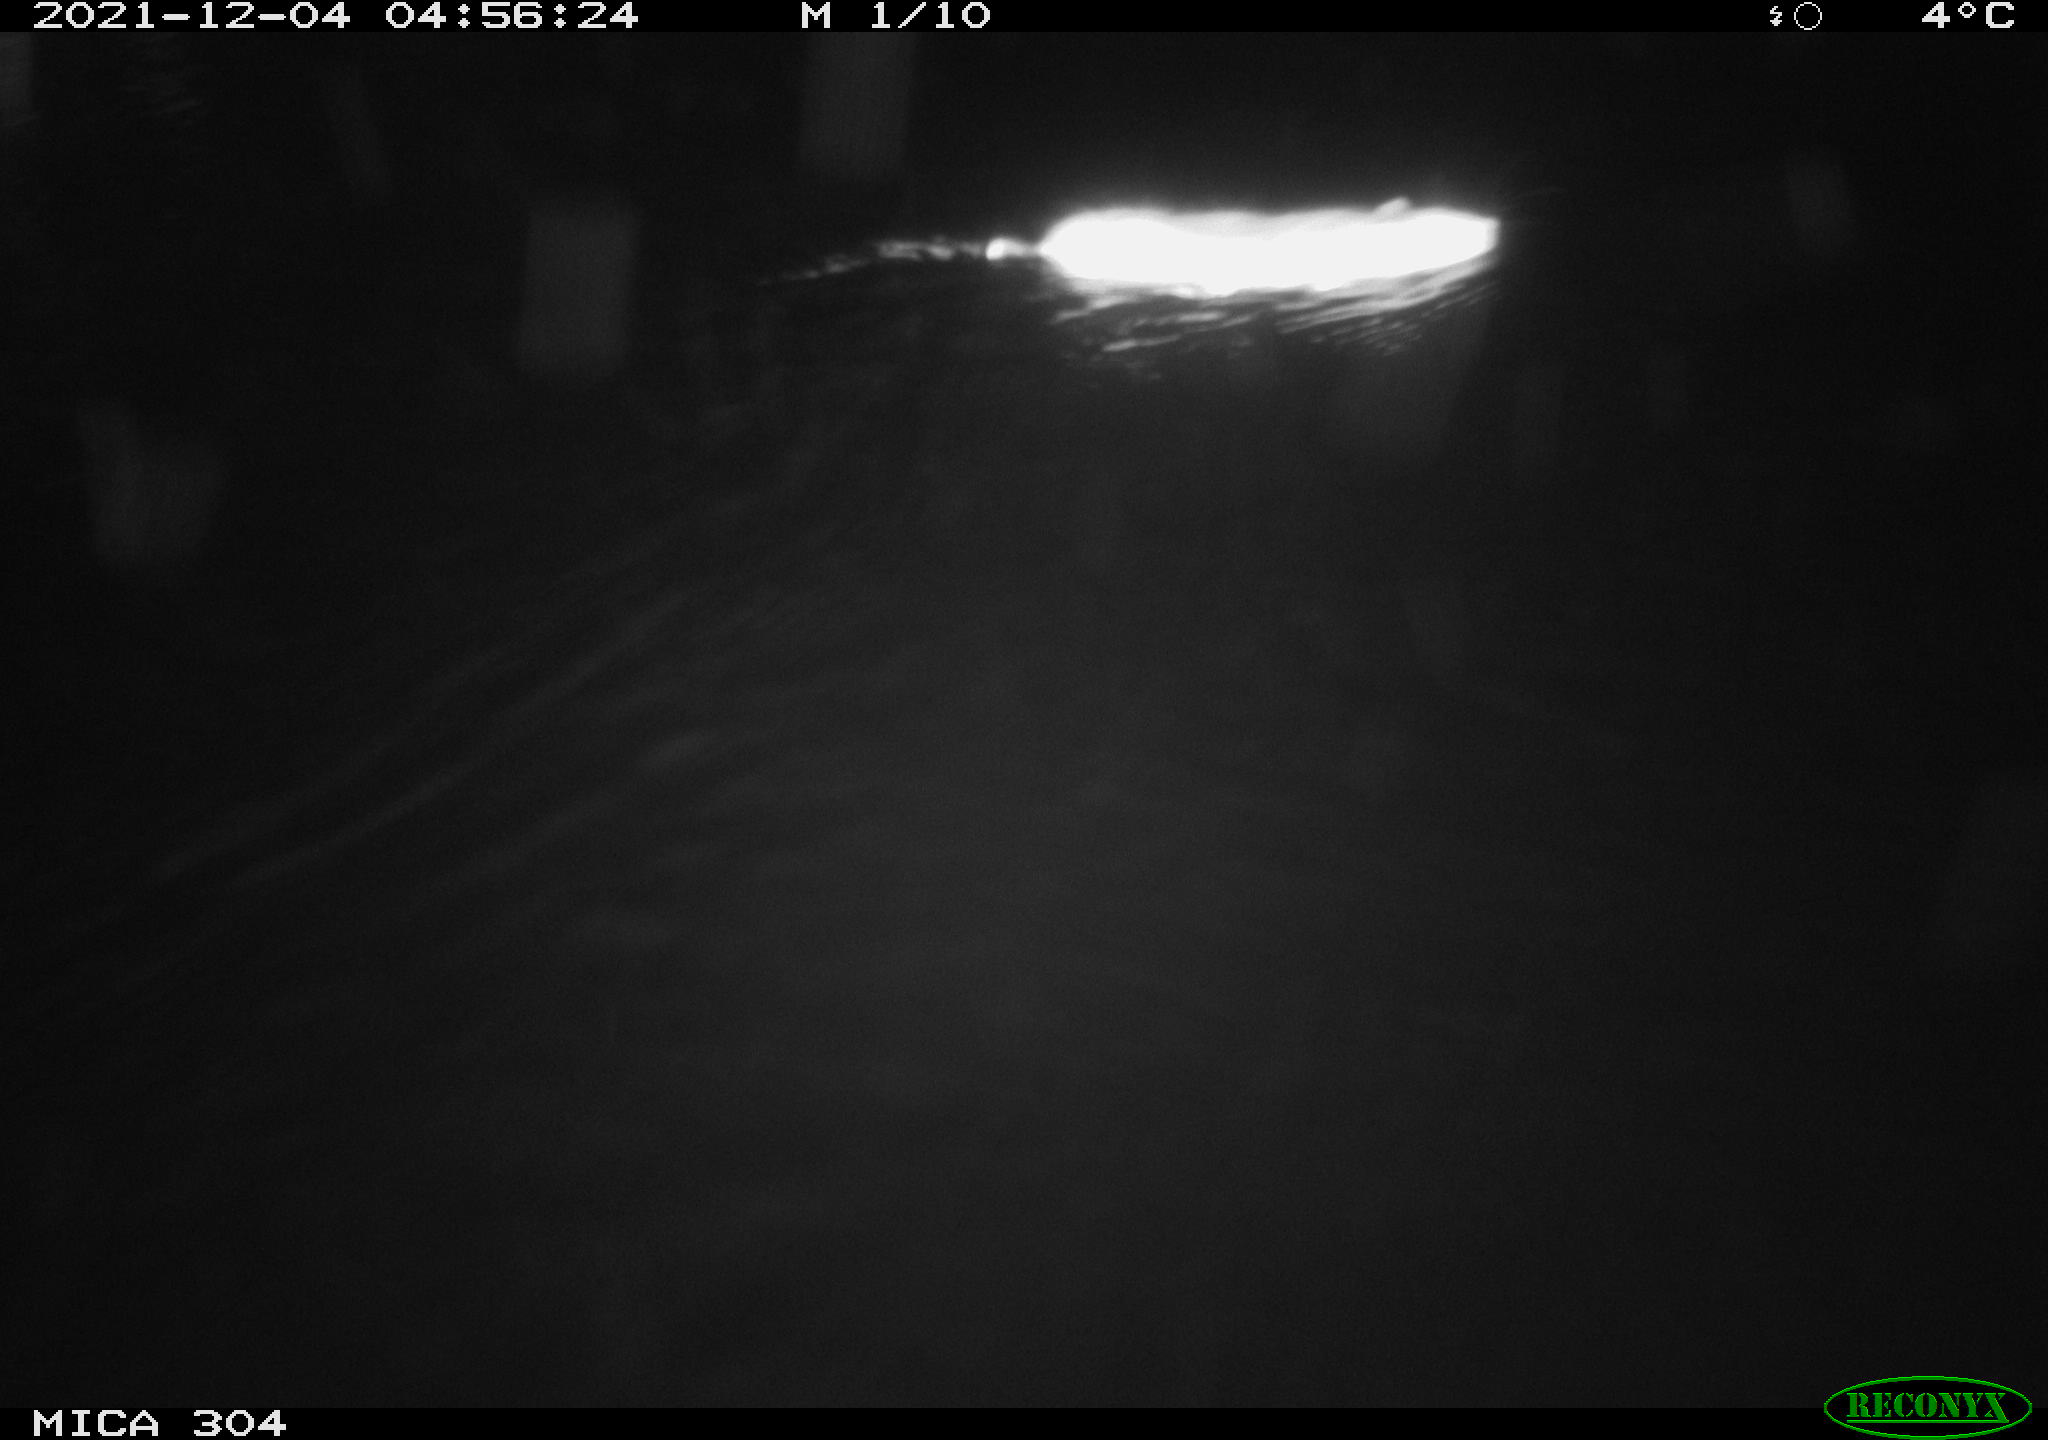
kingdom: Animalia
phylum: Chordata
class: Mammalia
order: Rodentia
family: Muridae
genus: Rattus
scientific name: Rattus norvegicus
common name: Brown rat
